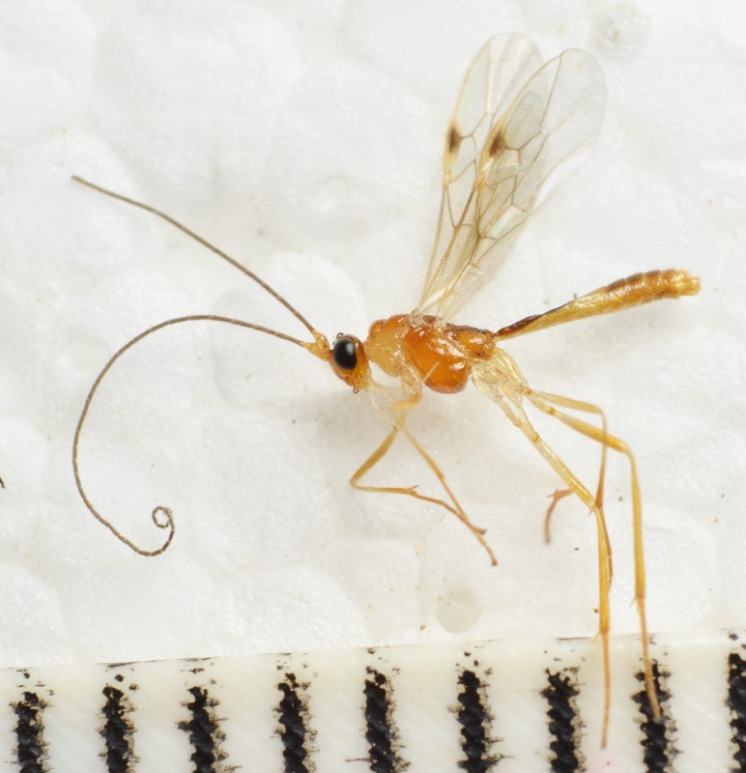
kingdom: Animalia
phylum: Arthropoda
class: Insecta
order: Hymenoptera
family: Braconidae
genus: Macrocentrus
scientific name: Macrocentrus linearis
